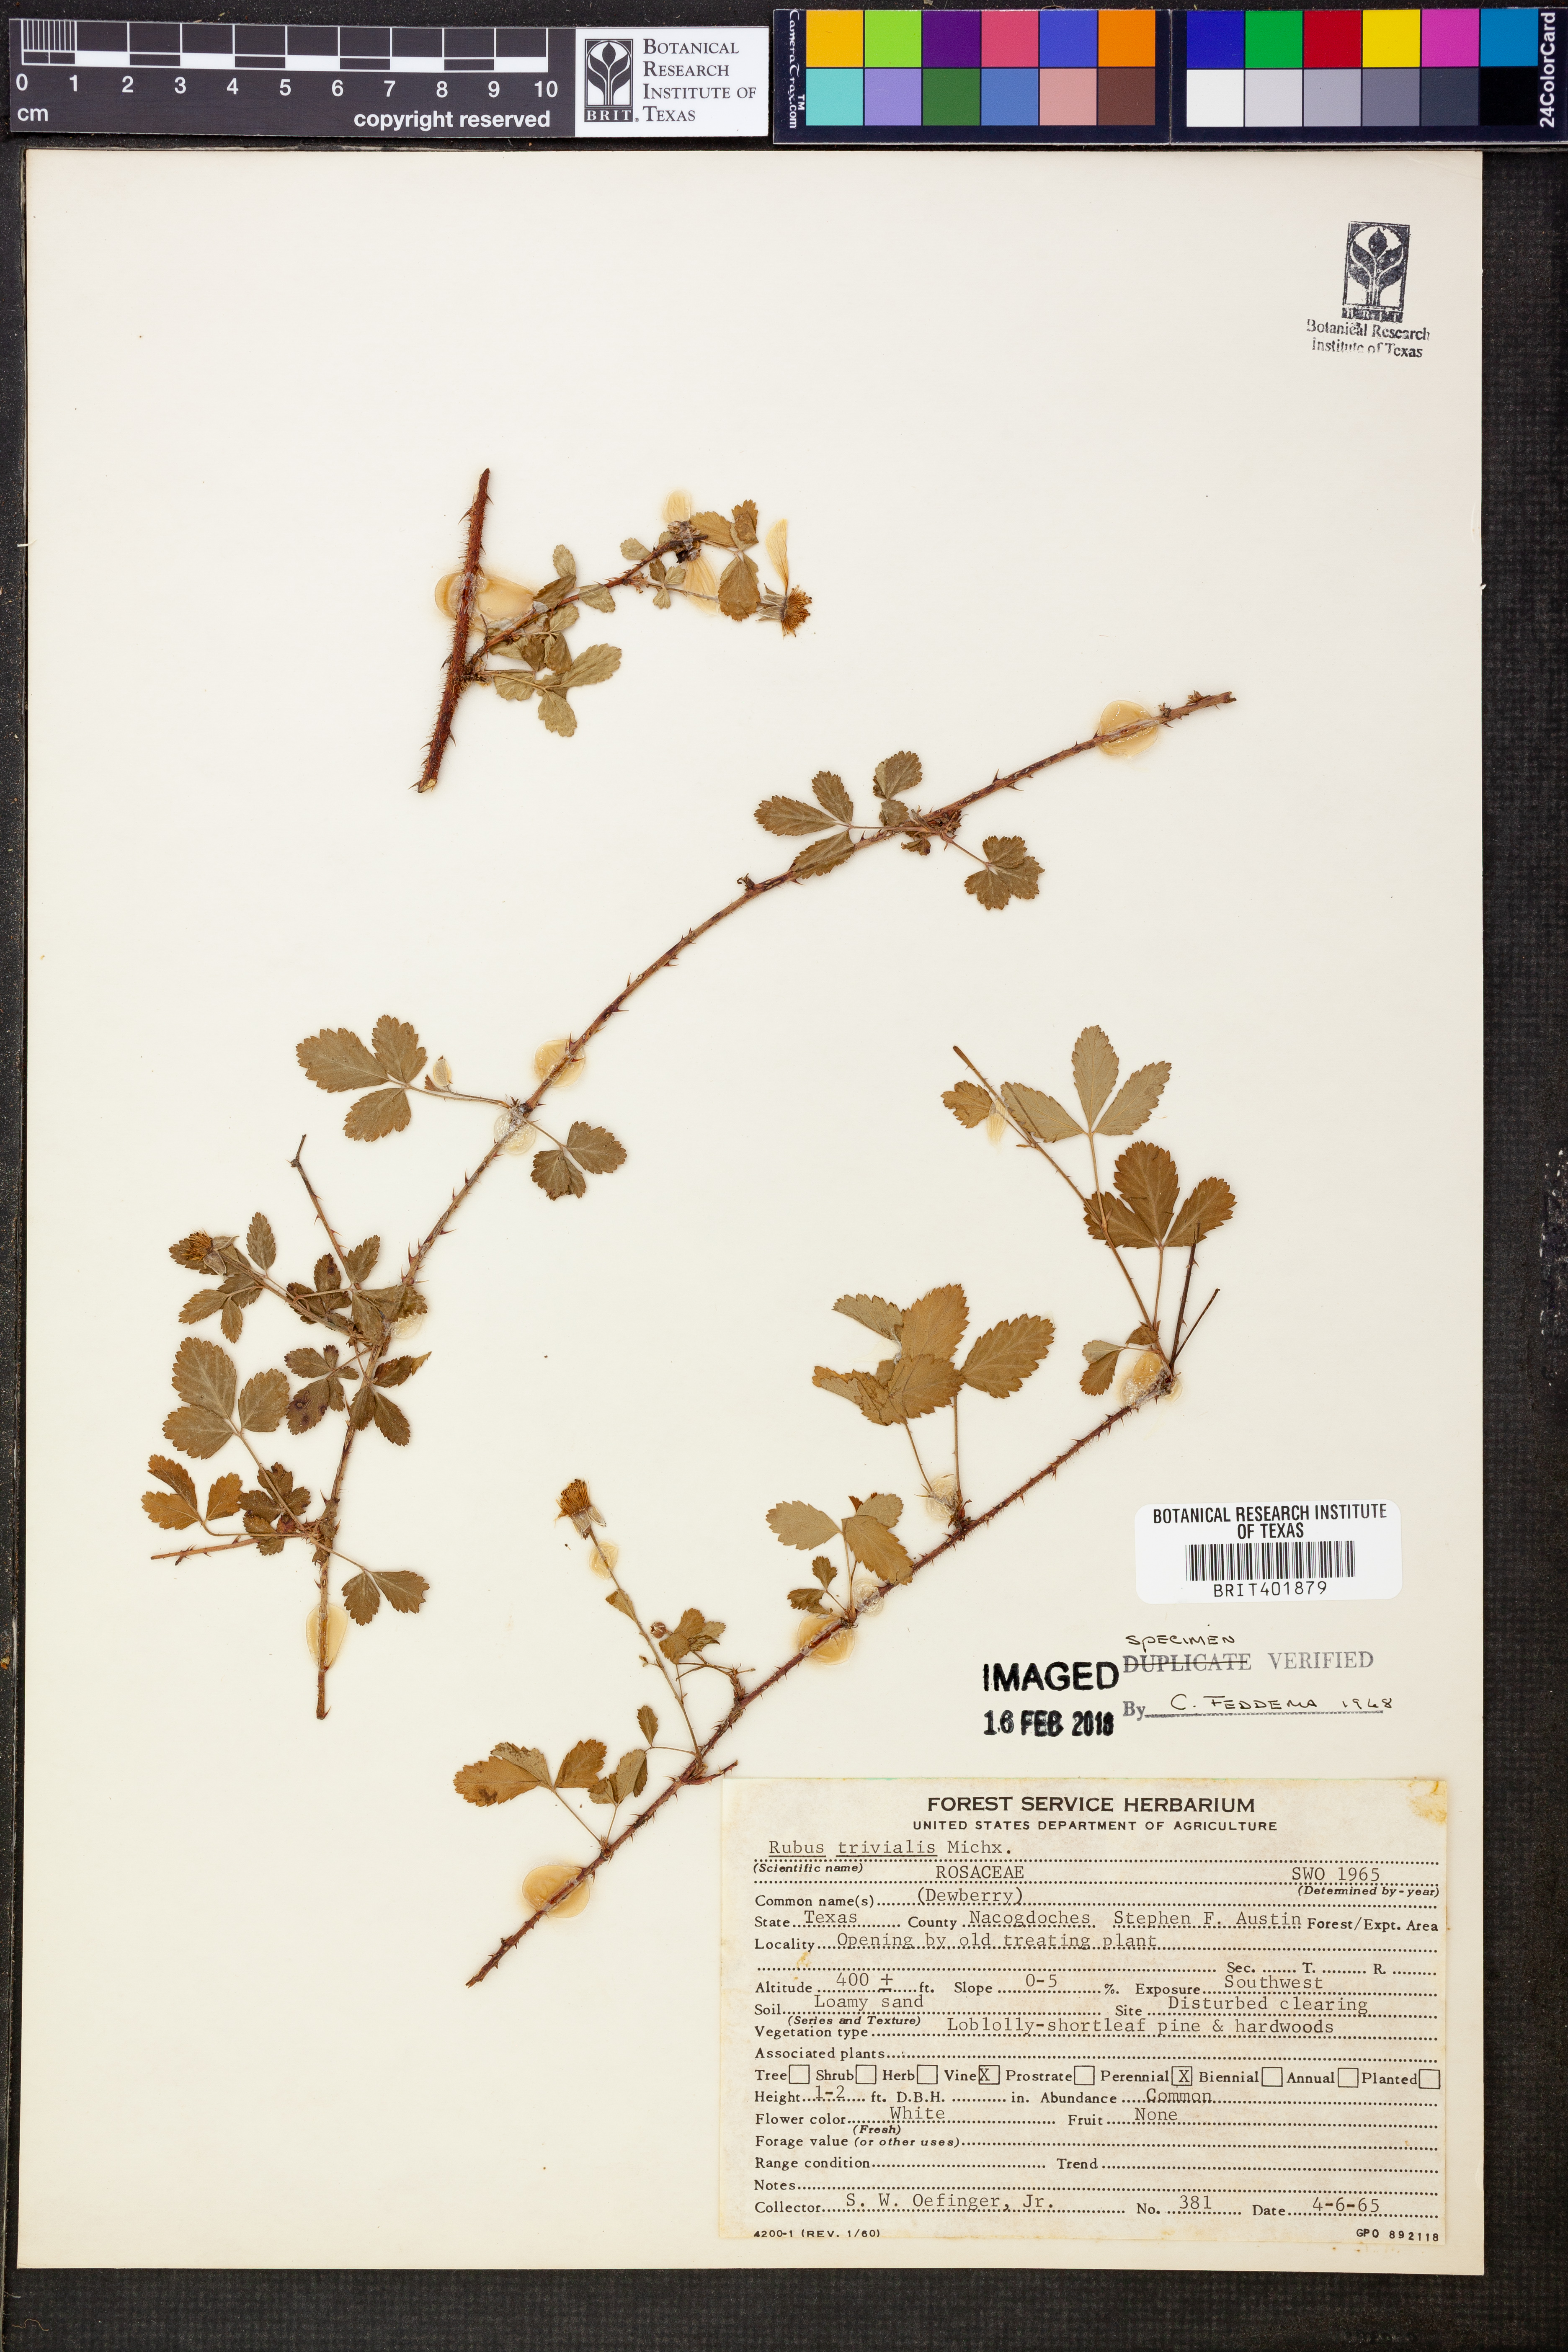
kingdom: Plantae
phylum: Tracheophyta
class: Magnoliopsida
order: Rosales
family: Rosaceae
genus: Rubus
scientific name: Rubus trivialis
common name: Southern dewberry
